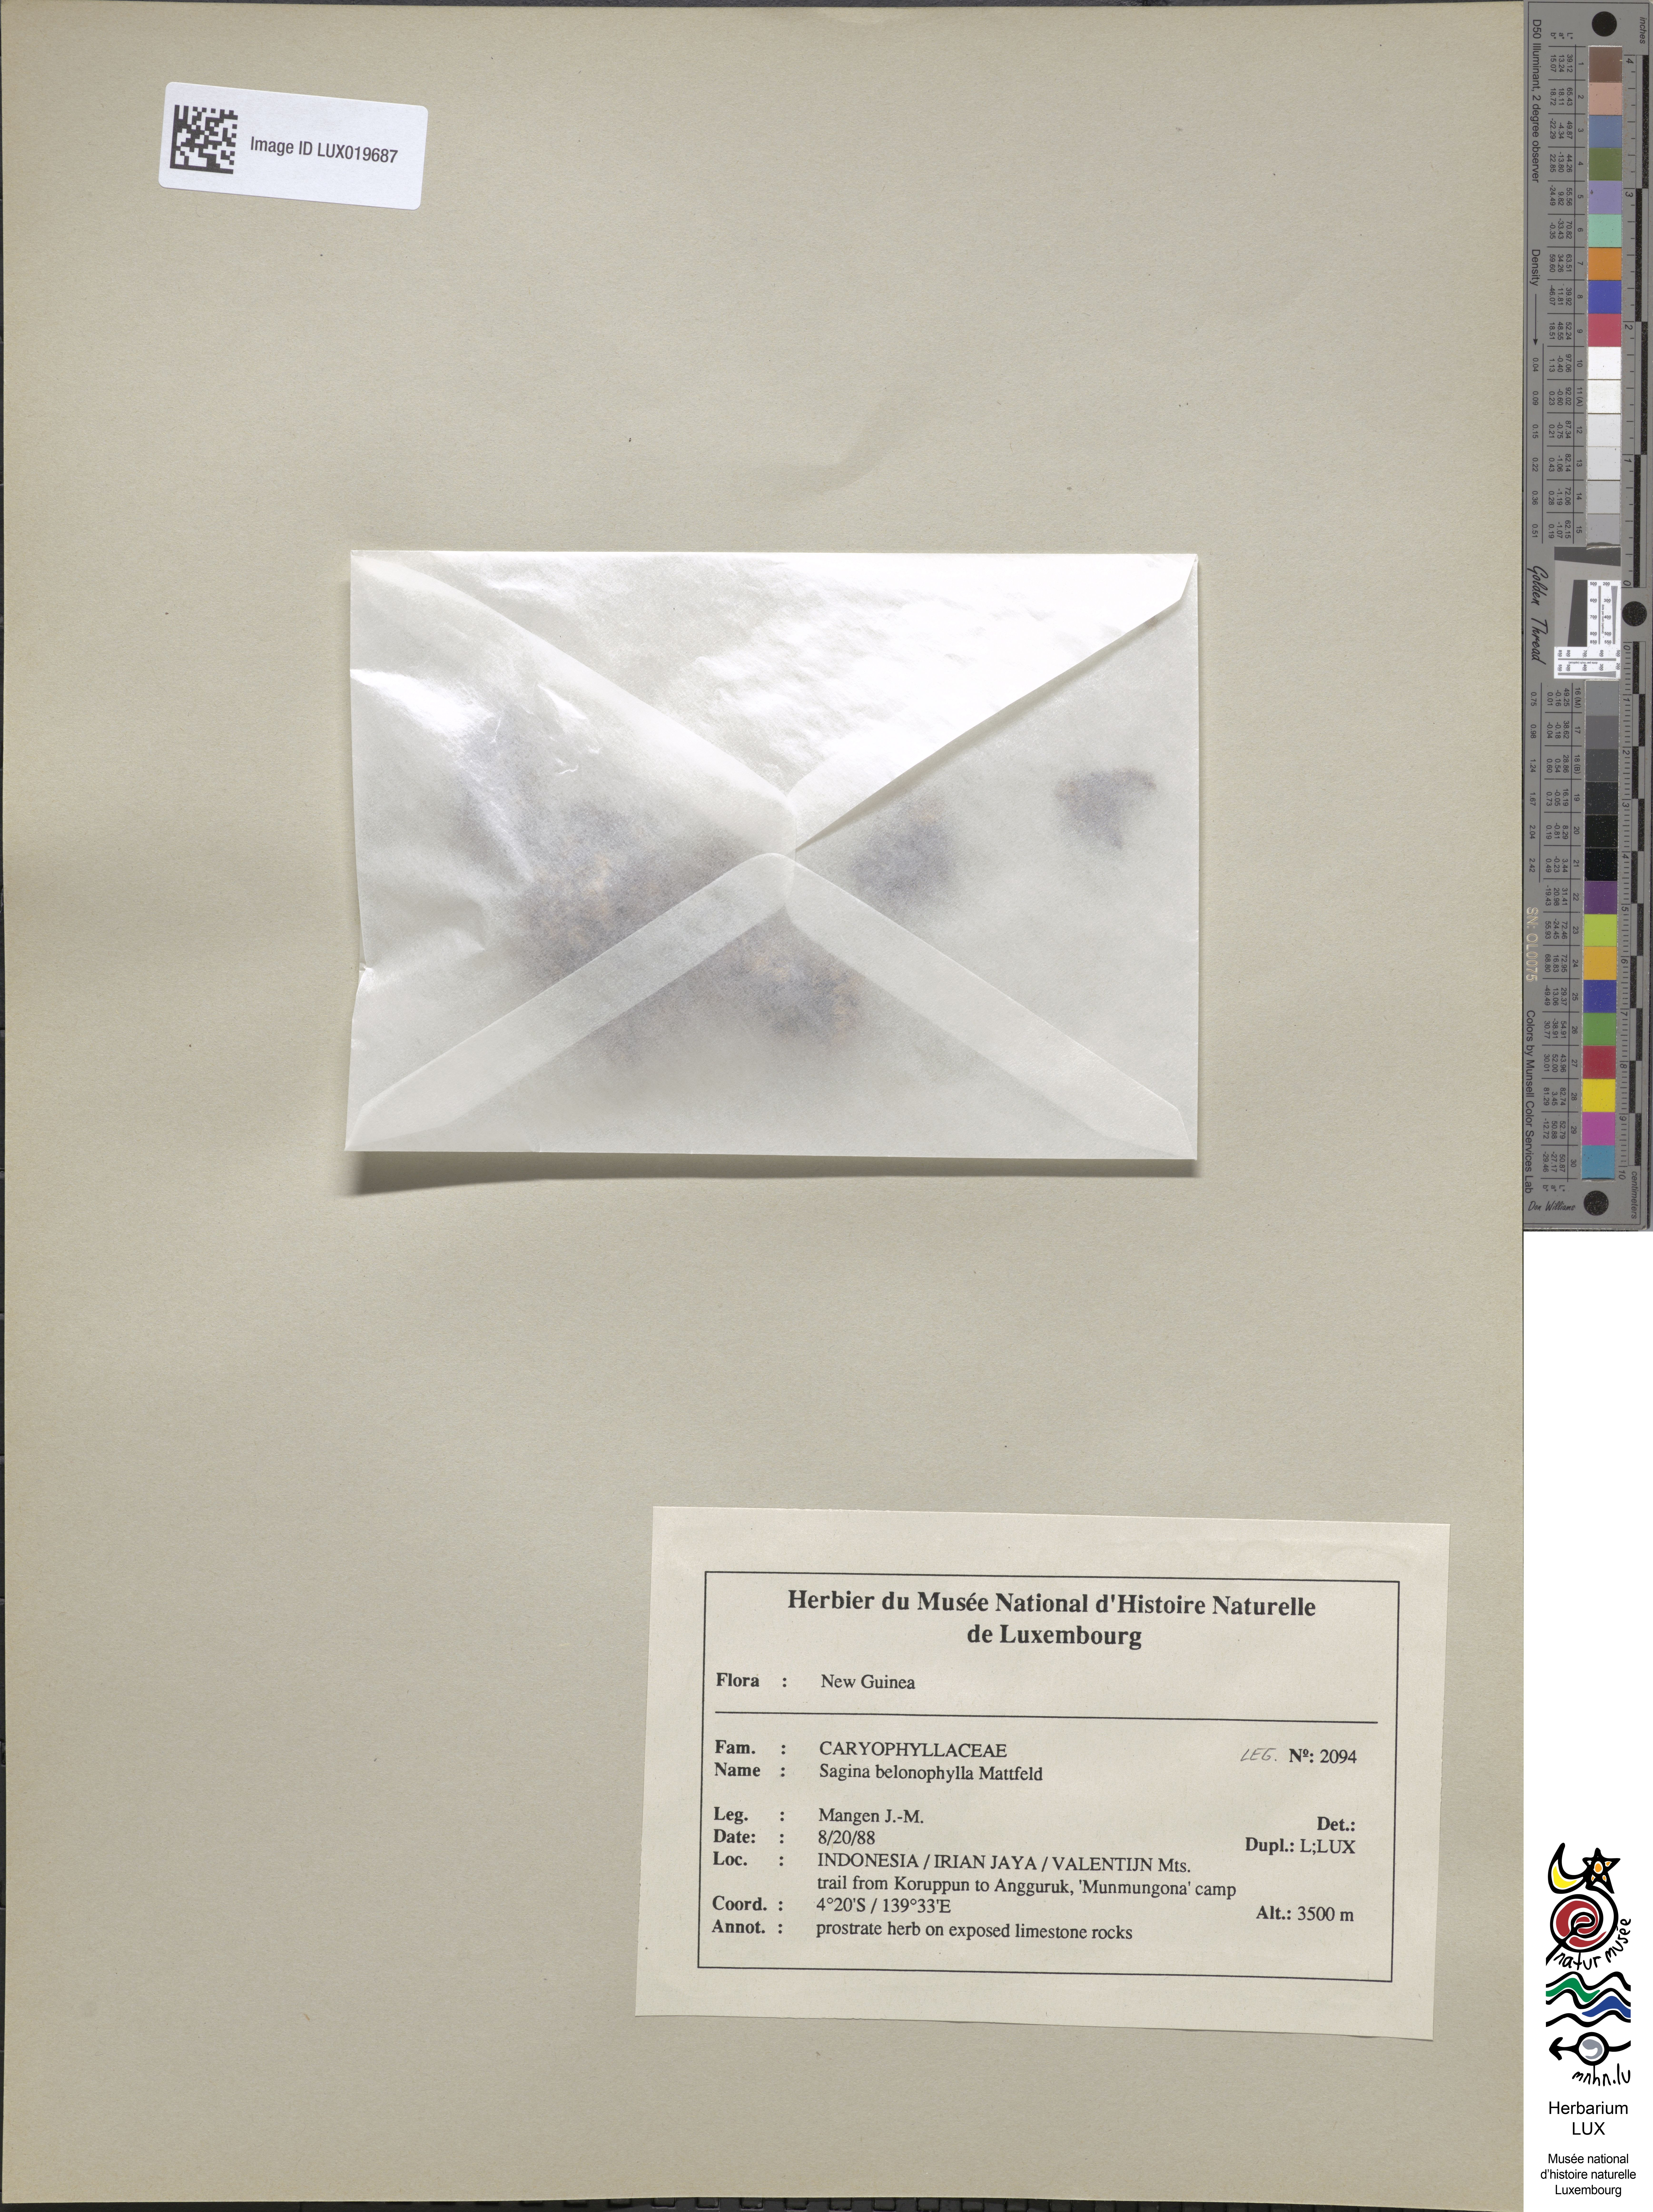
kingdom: Plantae
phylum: Tracheophyta
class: Magnoliopsida
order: Caryophyllales
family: Caryophyllaceae
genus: Sagina
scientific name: Sagina belonophylla
